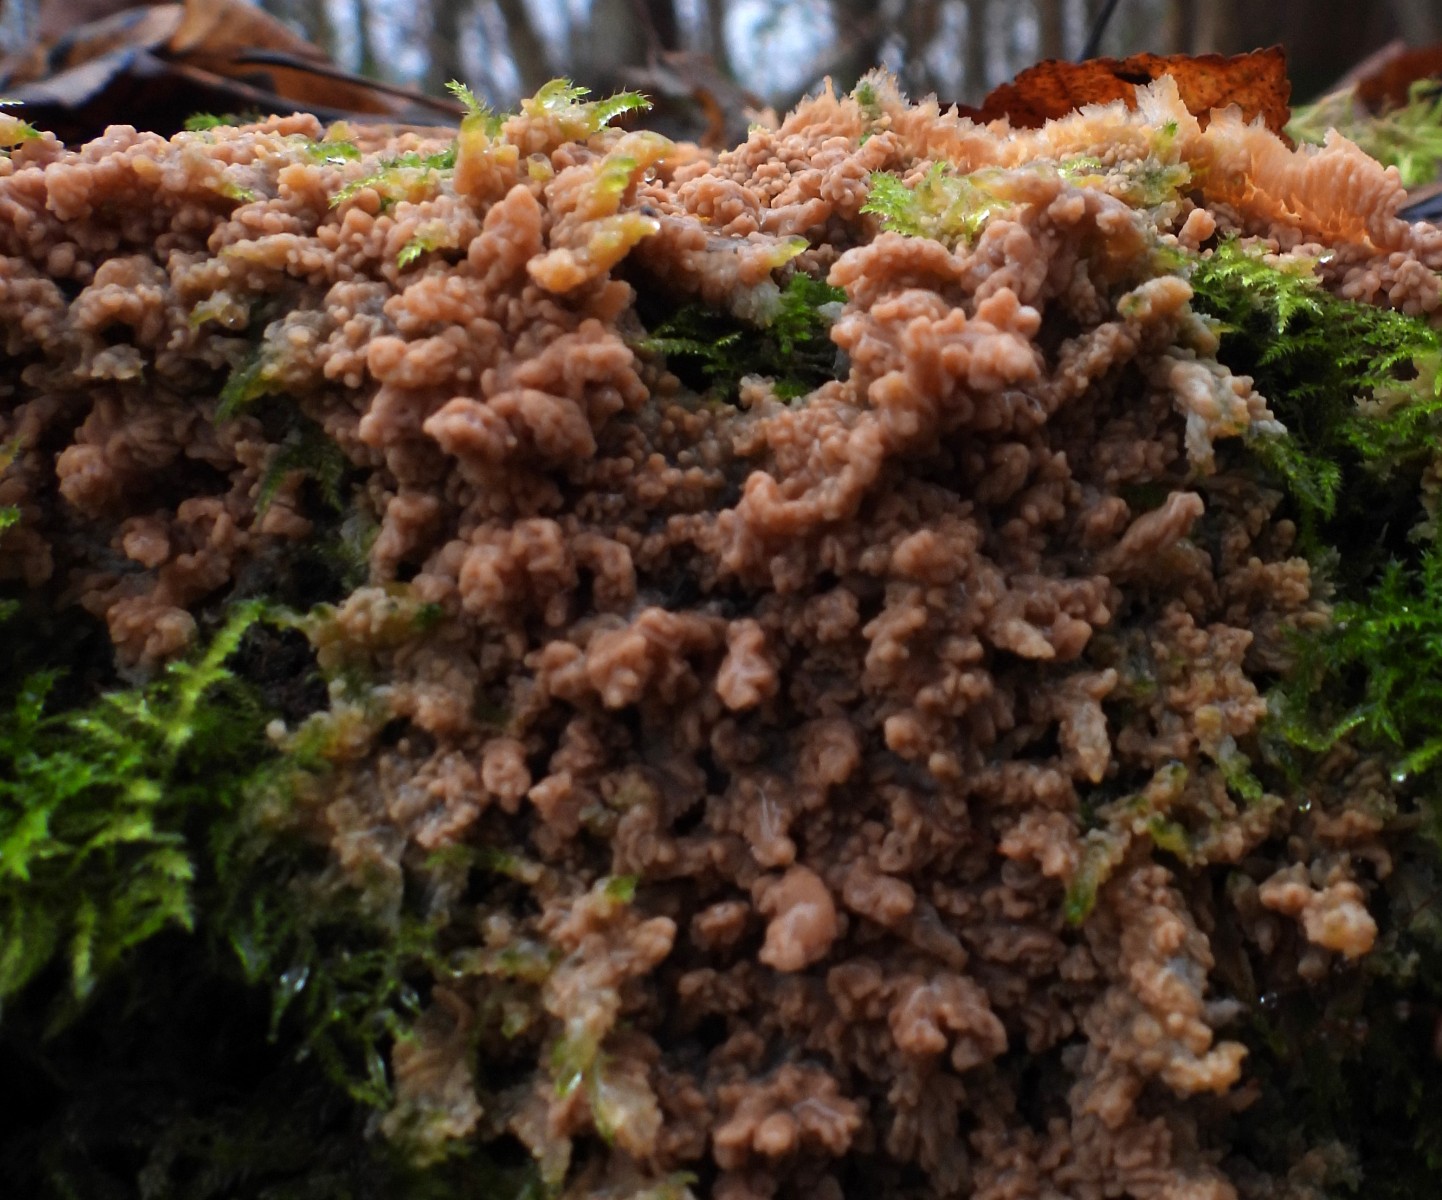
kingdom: Fungi
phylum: Basidiomycota
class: Agaricomycetes
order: Polyporales
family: Meruliaceae
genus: Phlebia
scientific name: Phlebia radiata
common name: stråle-åresvamp
